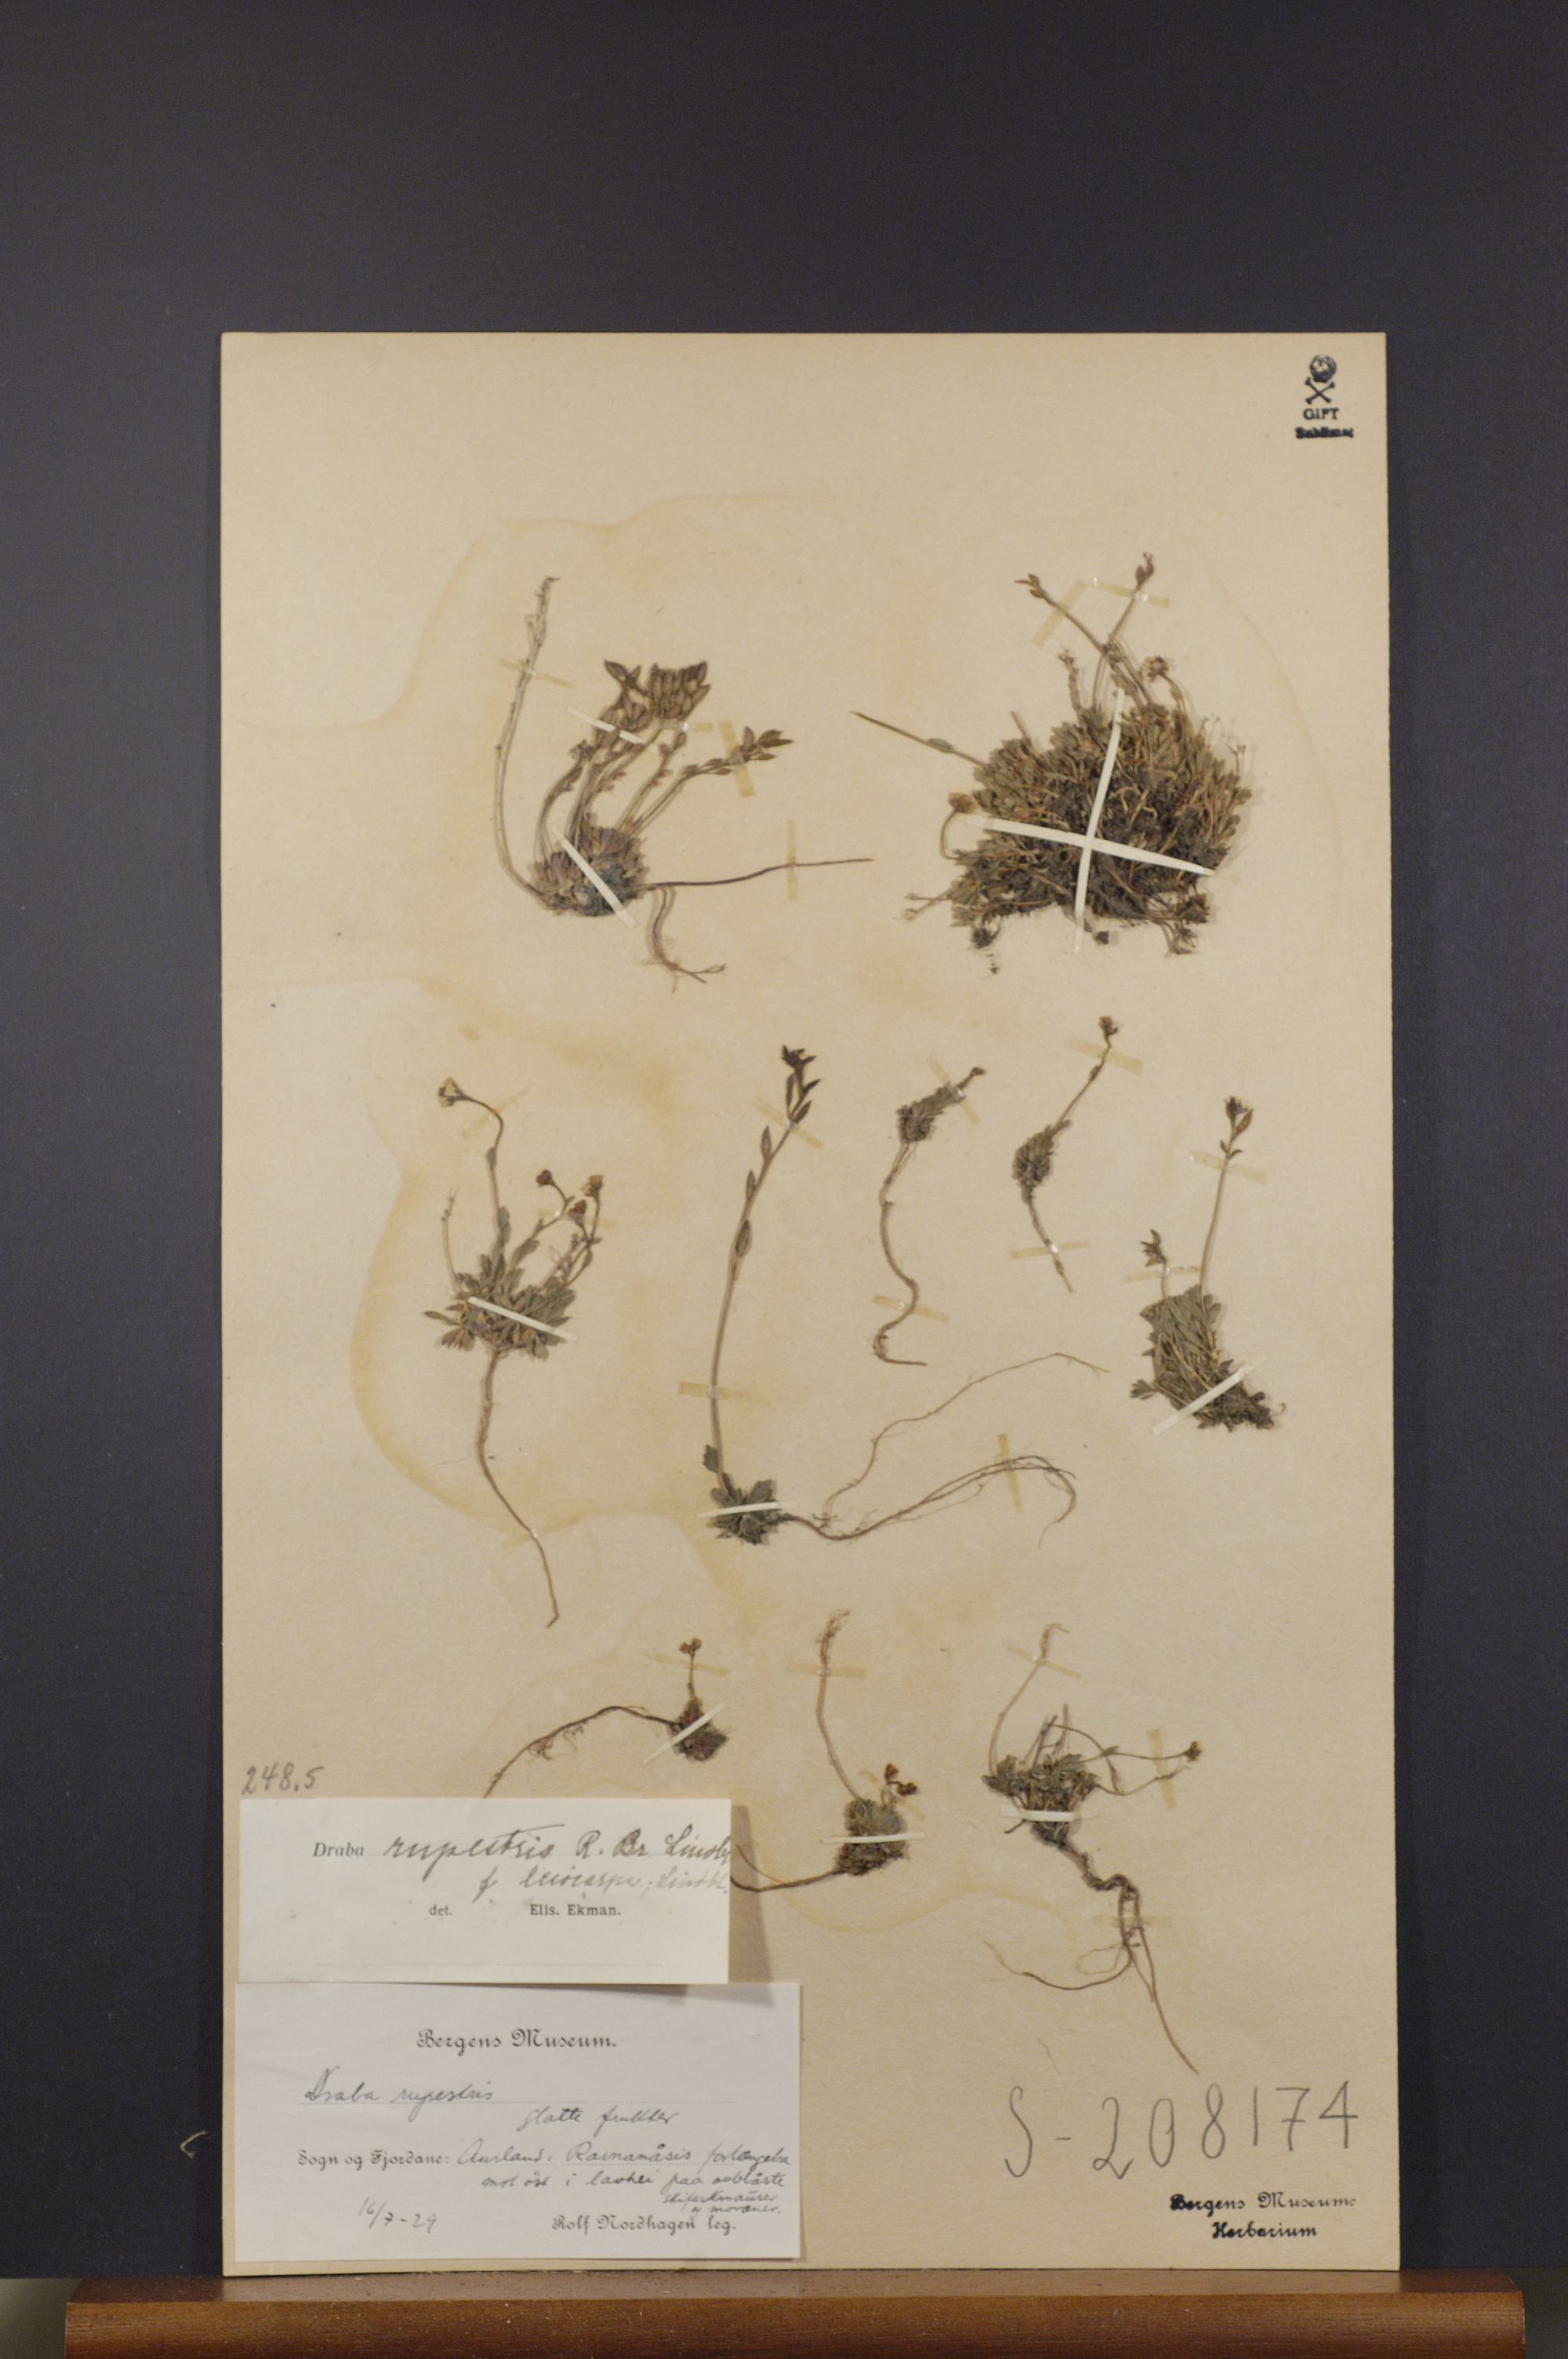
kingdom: Plantae
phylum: Tracheophyta
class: Magnoliopsida
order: Brassicales
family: Brassicaceae
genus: Draba
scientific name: Draba norvegica
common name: Rock whitlowgrass
